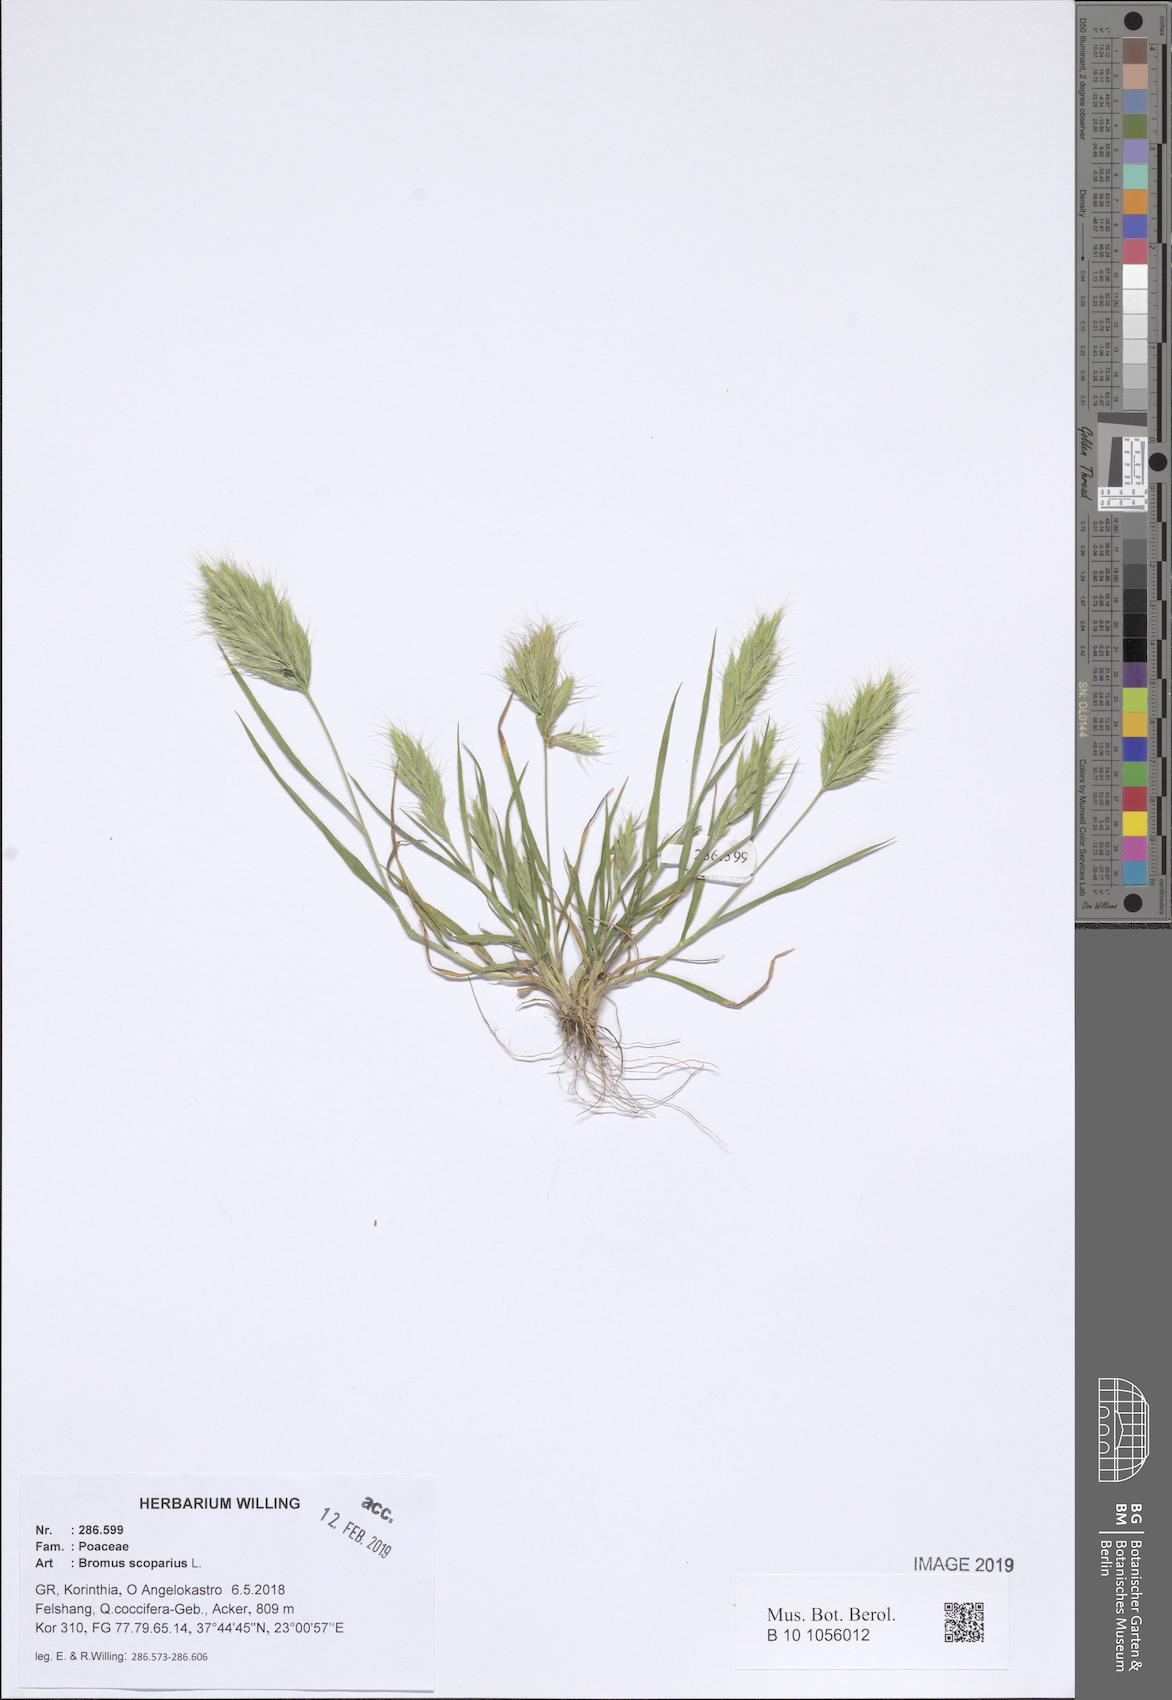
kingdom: Plantae
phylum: Tracheophyta
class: Liliopsida
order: Poales
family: Poaceae
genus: Bromus
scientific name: Bromus scoparius
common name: Broom brome
